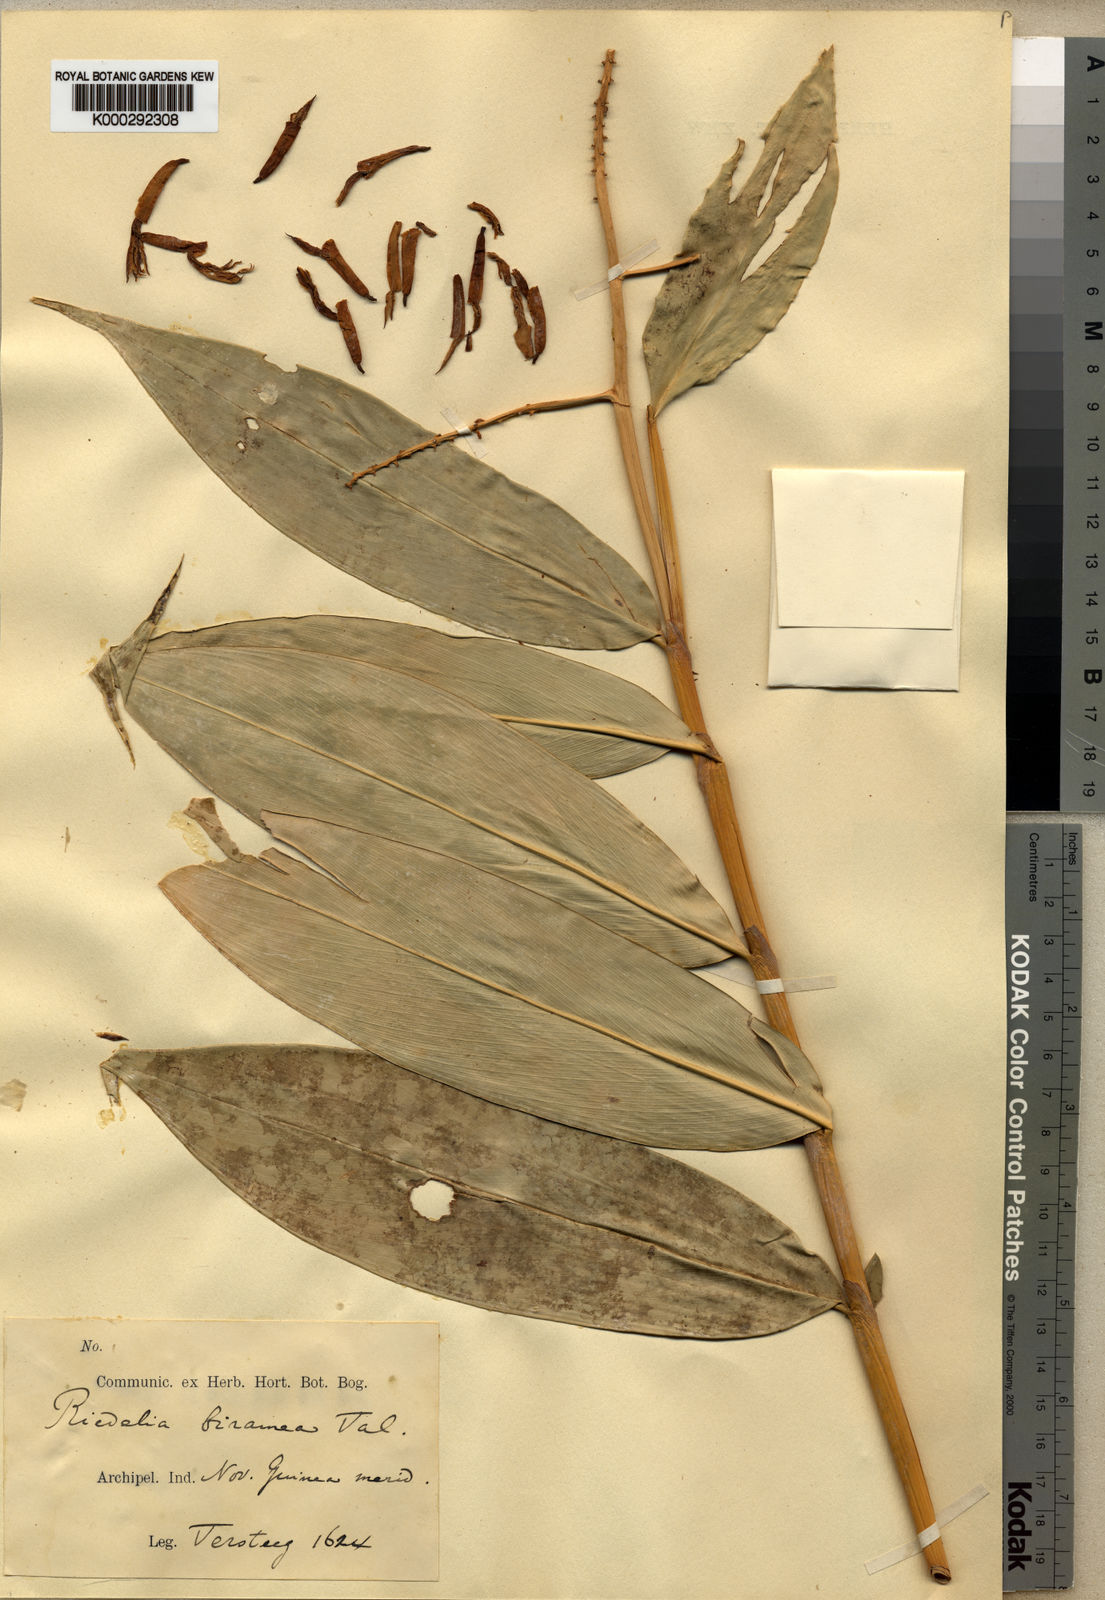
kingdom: Plantae
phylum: Tracheophyta
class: Liliopsida
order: Zingiberales
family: Zingiberaceae
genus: Riedelia
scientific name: Riedelia
